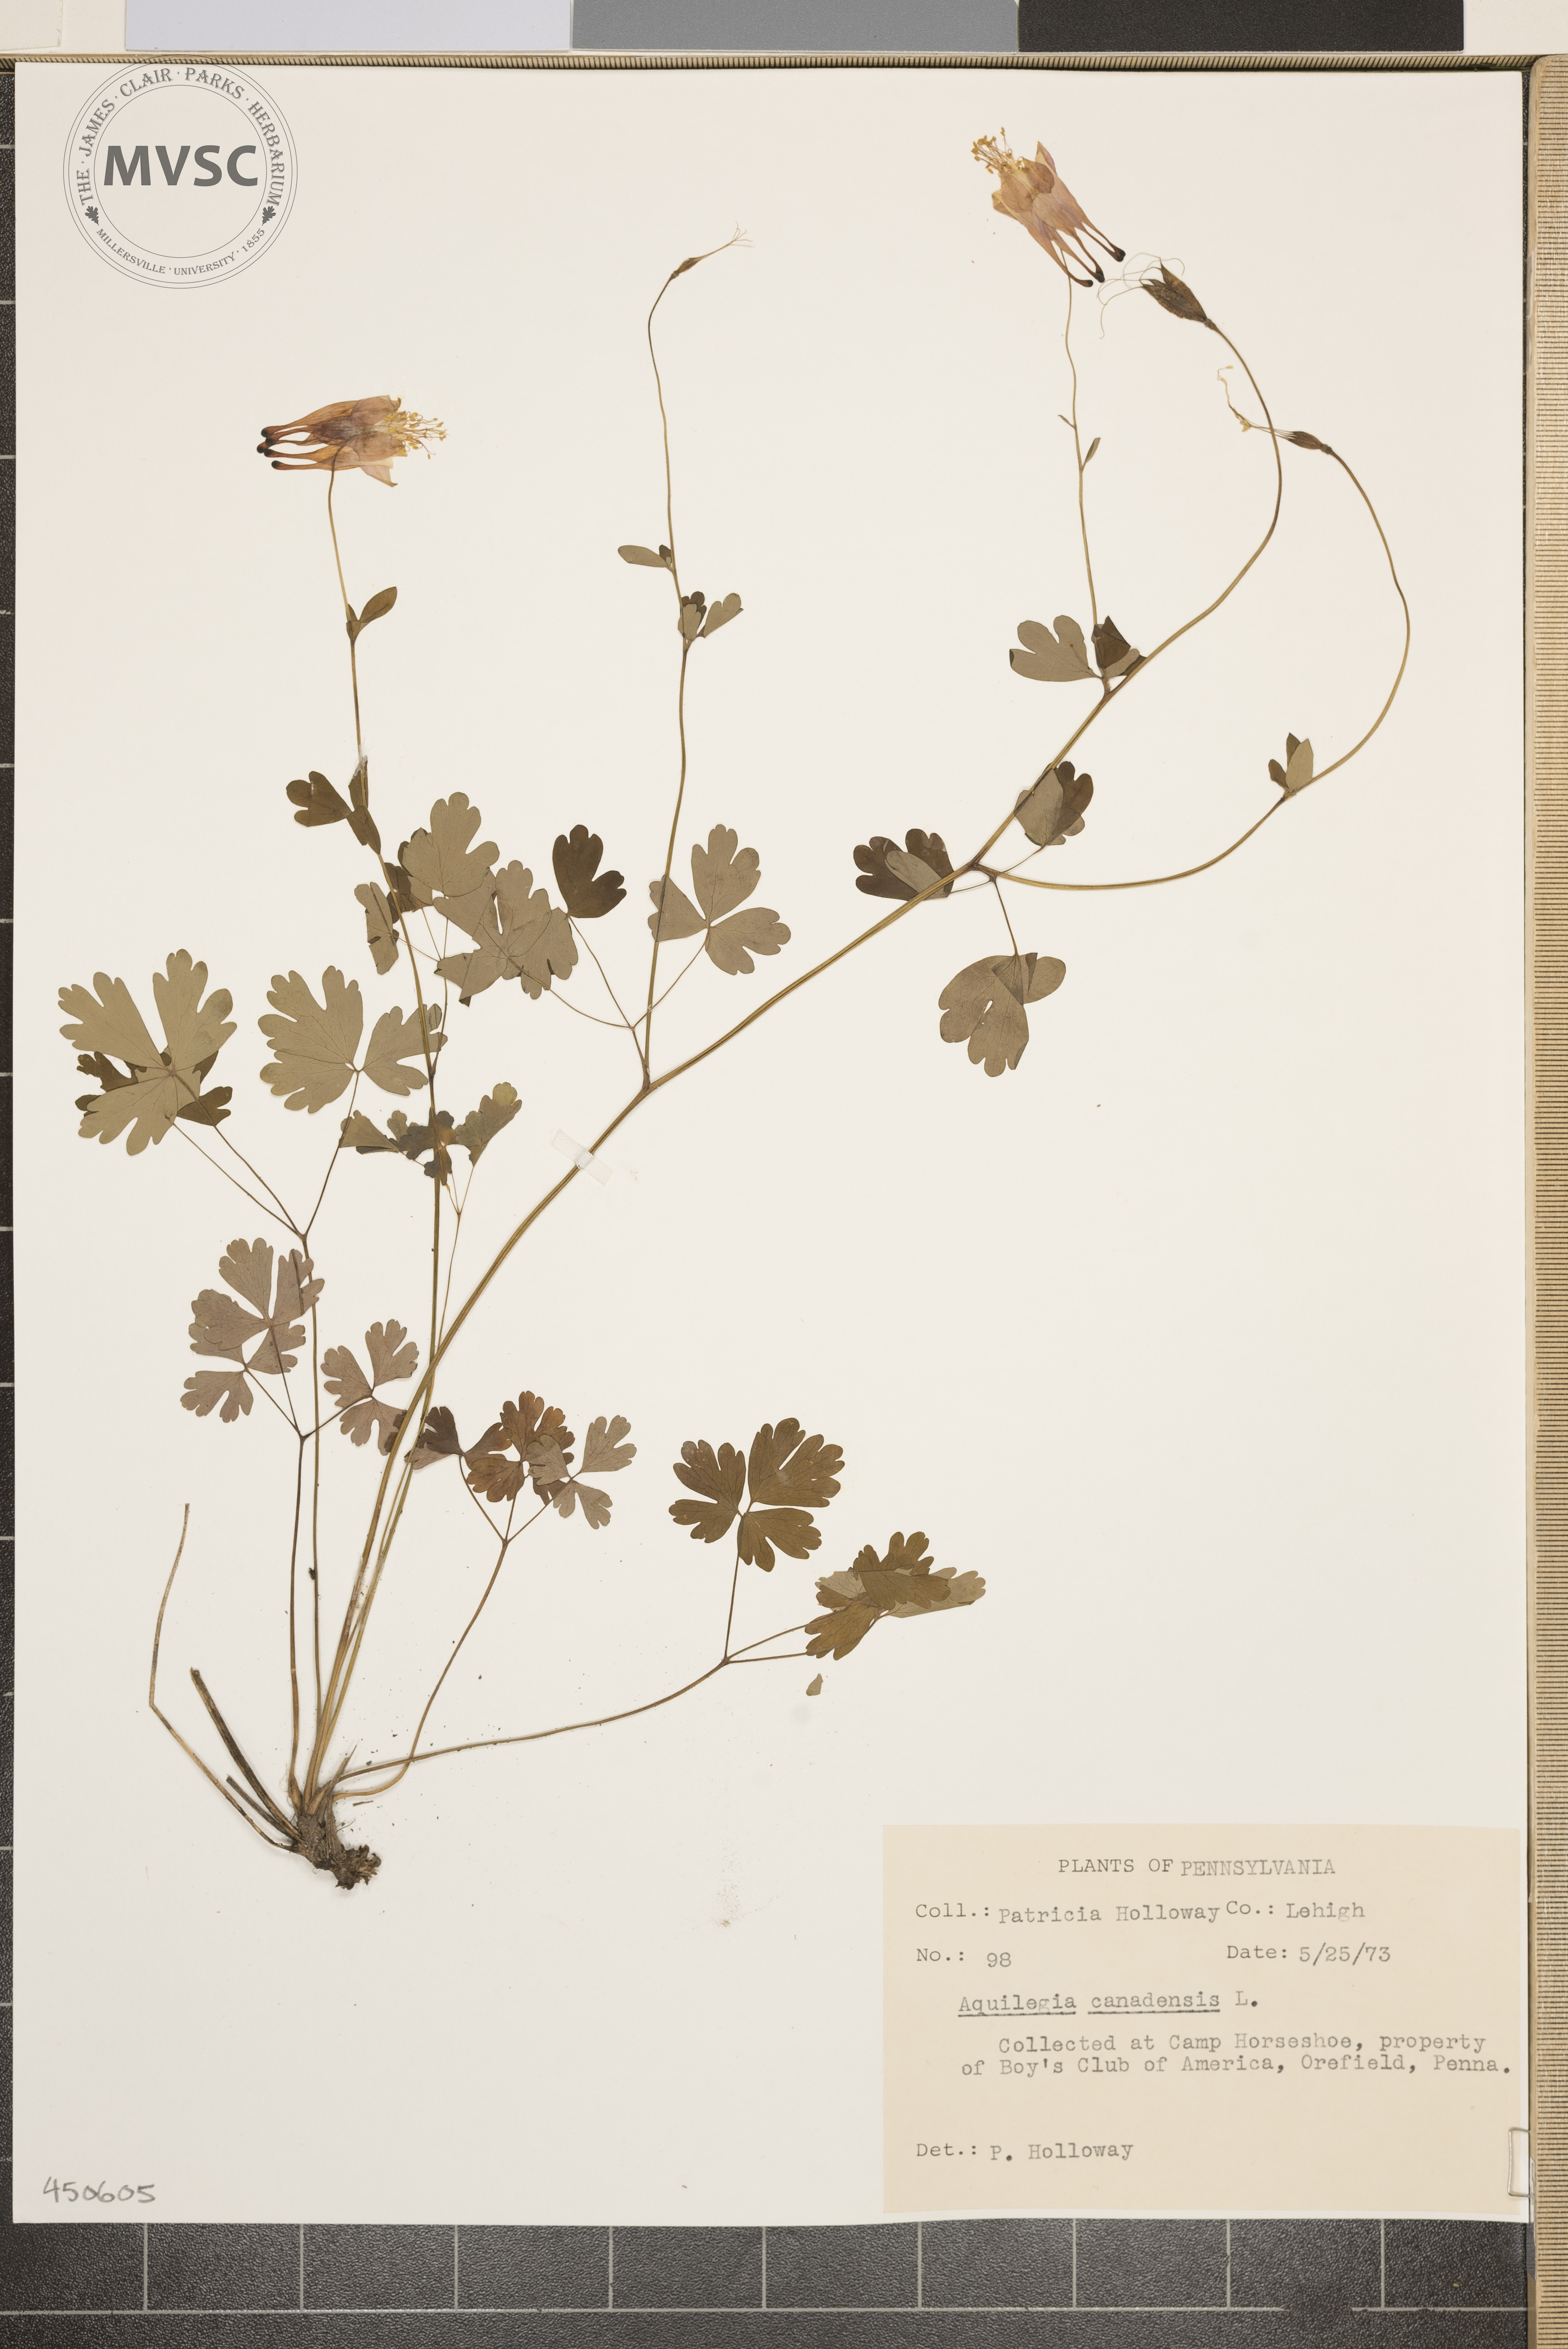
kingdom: Plantae
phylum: Tracheophyta
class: Magnoliopsida
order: Ranunculales
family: Ranunculaceae
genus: Aquilegia
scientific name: Aquilegia canadensis
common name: American columbine
